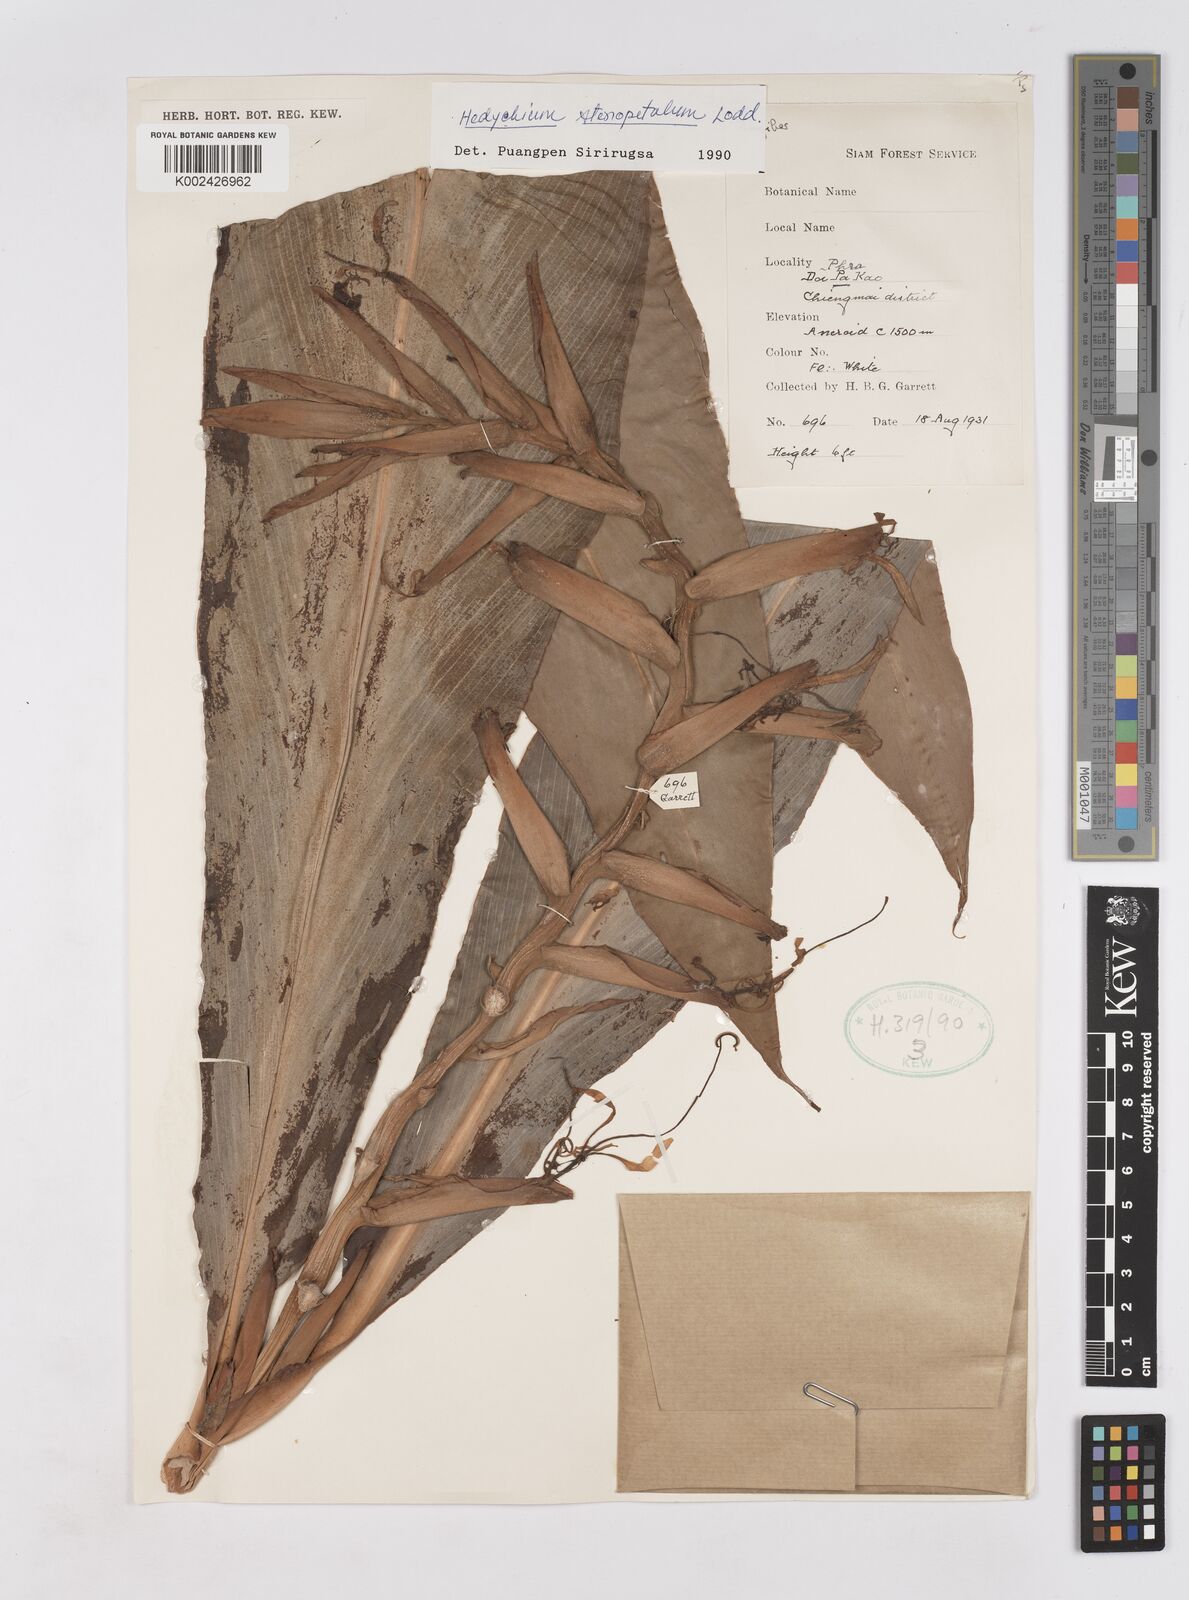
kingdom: Plantae
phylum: Tracheophyta
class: Liliopsida
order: Zingiberales
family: Zingiberaceae
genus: Hedychium
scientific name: Hedychium stenopetalum
